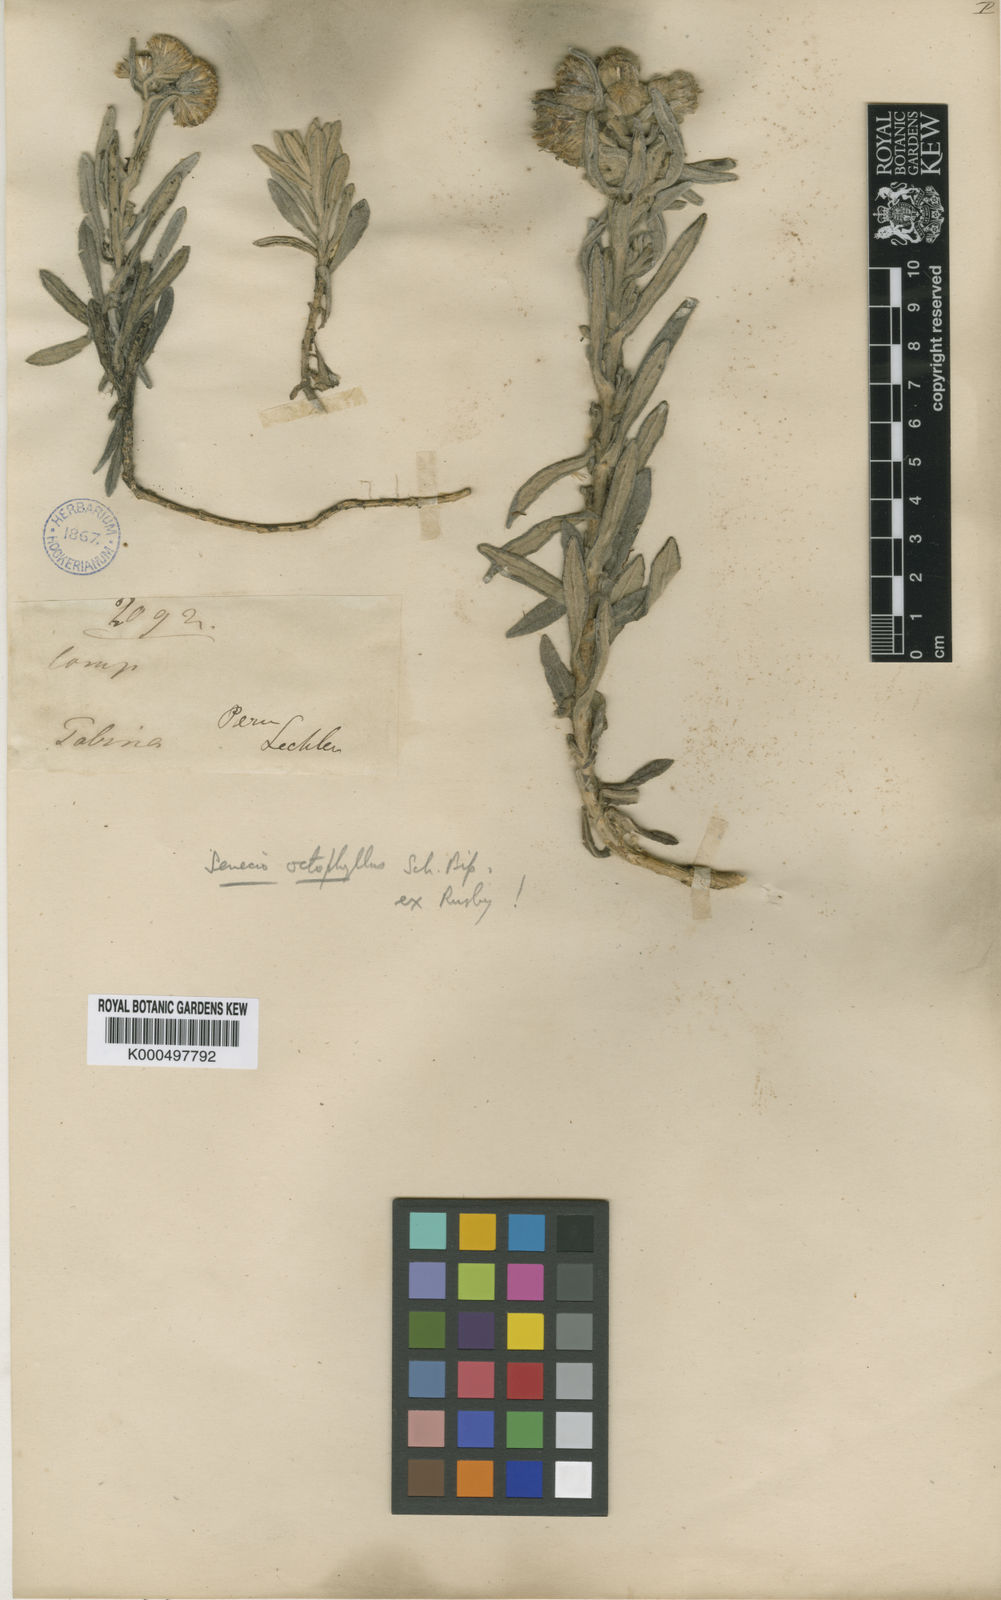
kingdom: Plantae
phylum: Tracheophyta
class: Magnoliopsida
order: Asterales
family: Asteraceae
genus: Senecio
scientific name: Senecio octophyllus
